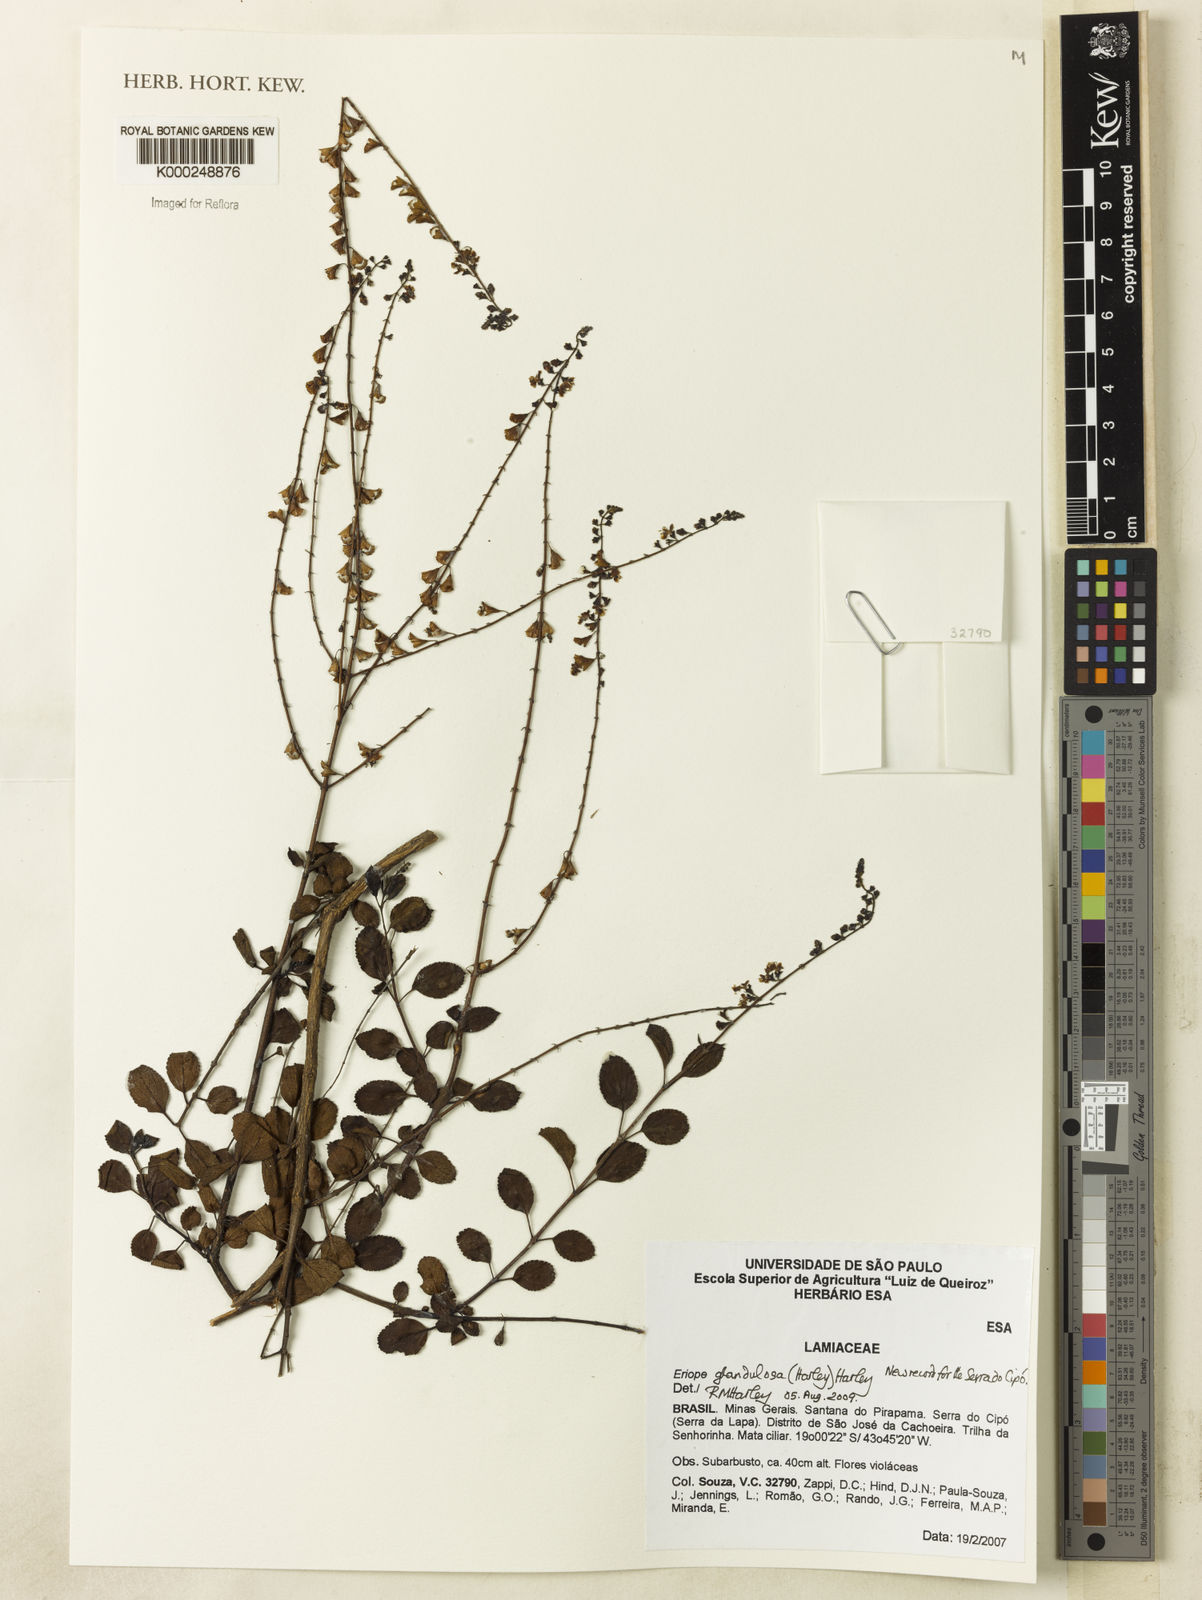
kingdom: Plantae
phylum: Tracheophyta
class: Magnoliopsida
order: Lamiales
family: Lamiaceae
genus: Eriope
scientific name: Eriope glandulosa
